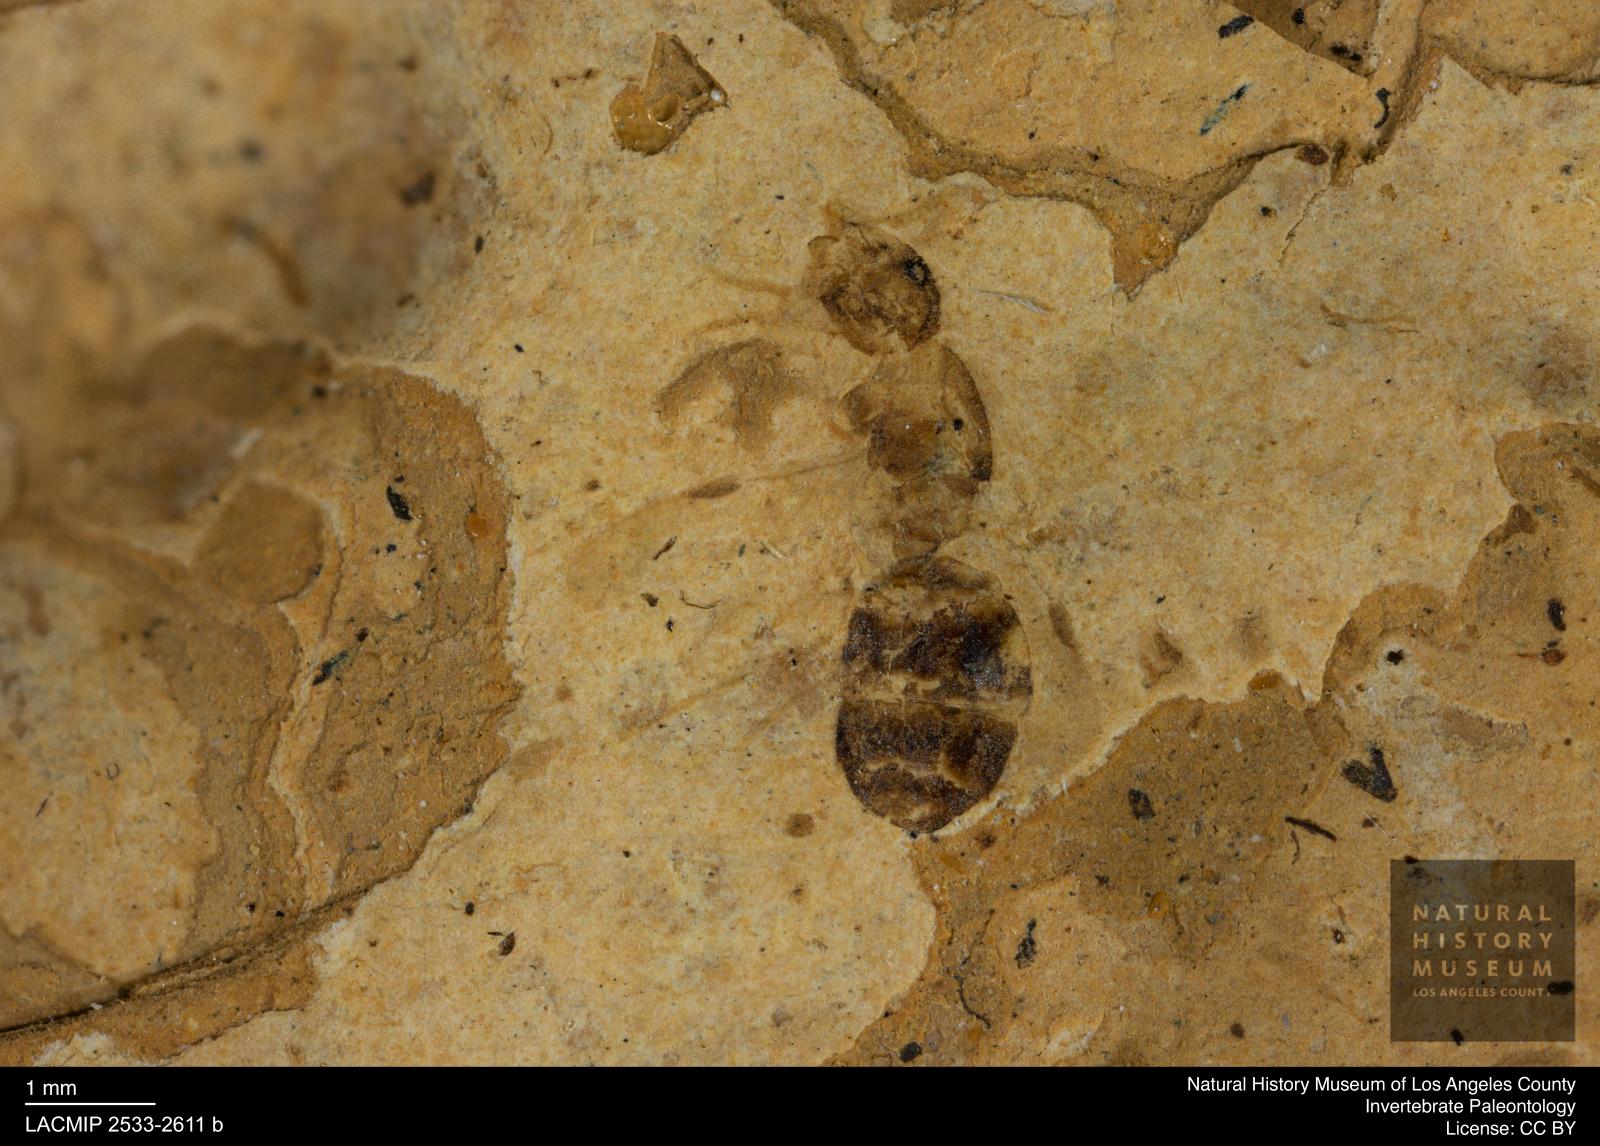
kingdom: Animalia
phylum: Arthropoda
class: Insecta
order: Hymenoptera
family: Formicidae
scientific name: Formicidae
